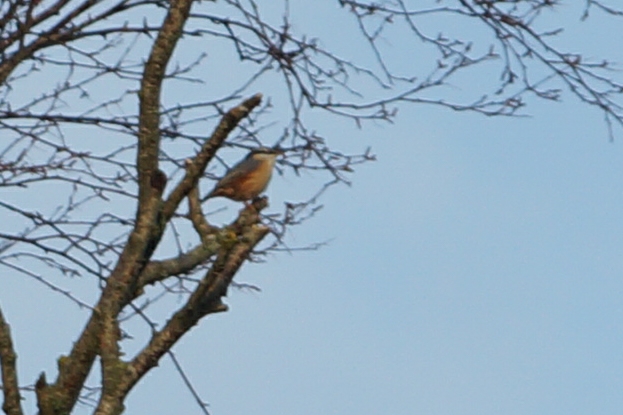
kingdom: Animalia
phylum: Chordata
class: Aves
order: Passeriformes
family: Sittidae
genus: Sitta
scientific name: Sitta europaea
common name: Spætmejse
